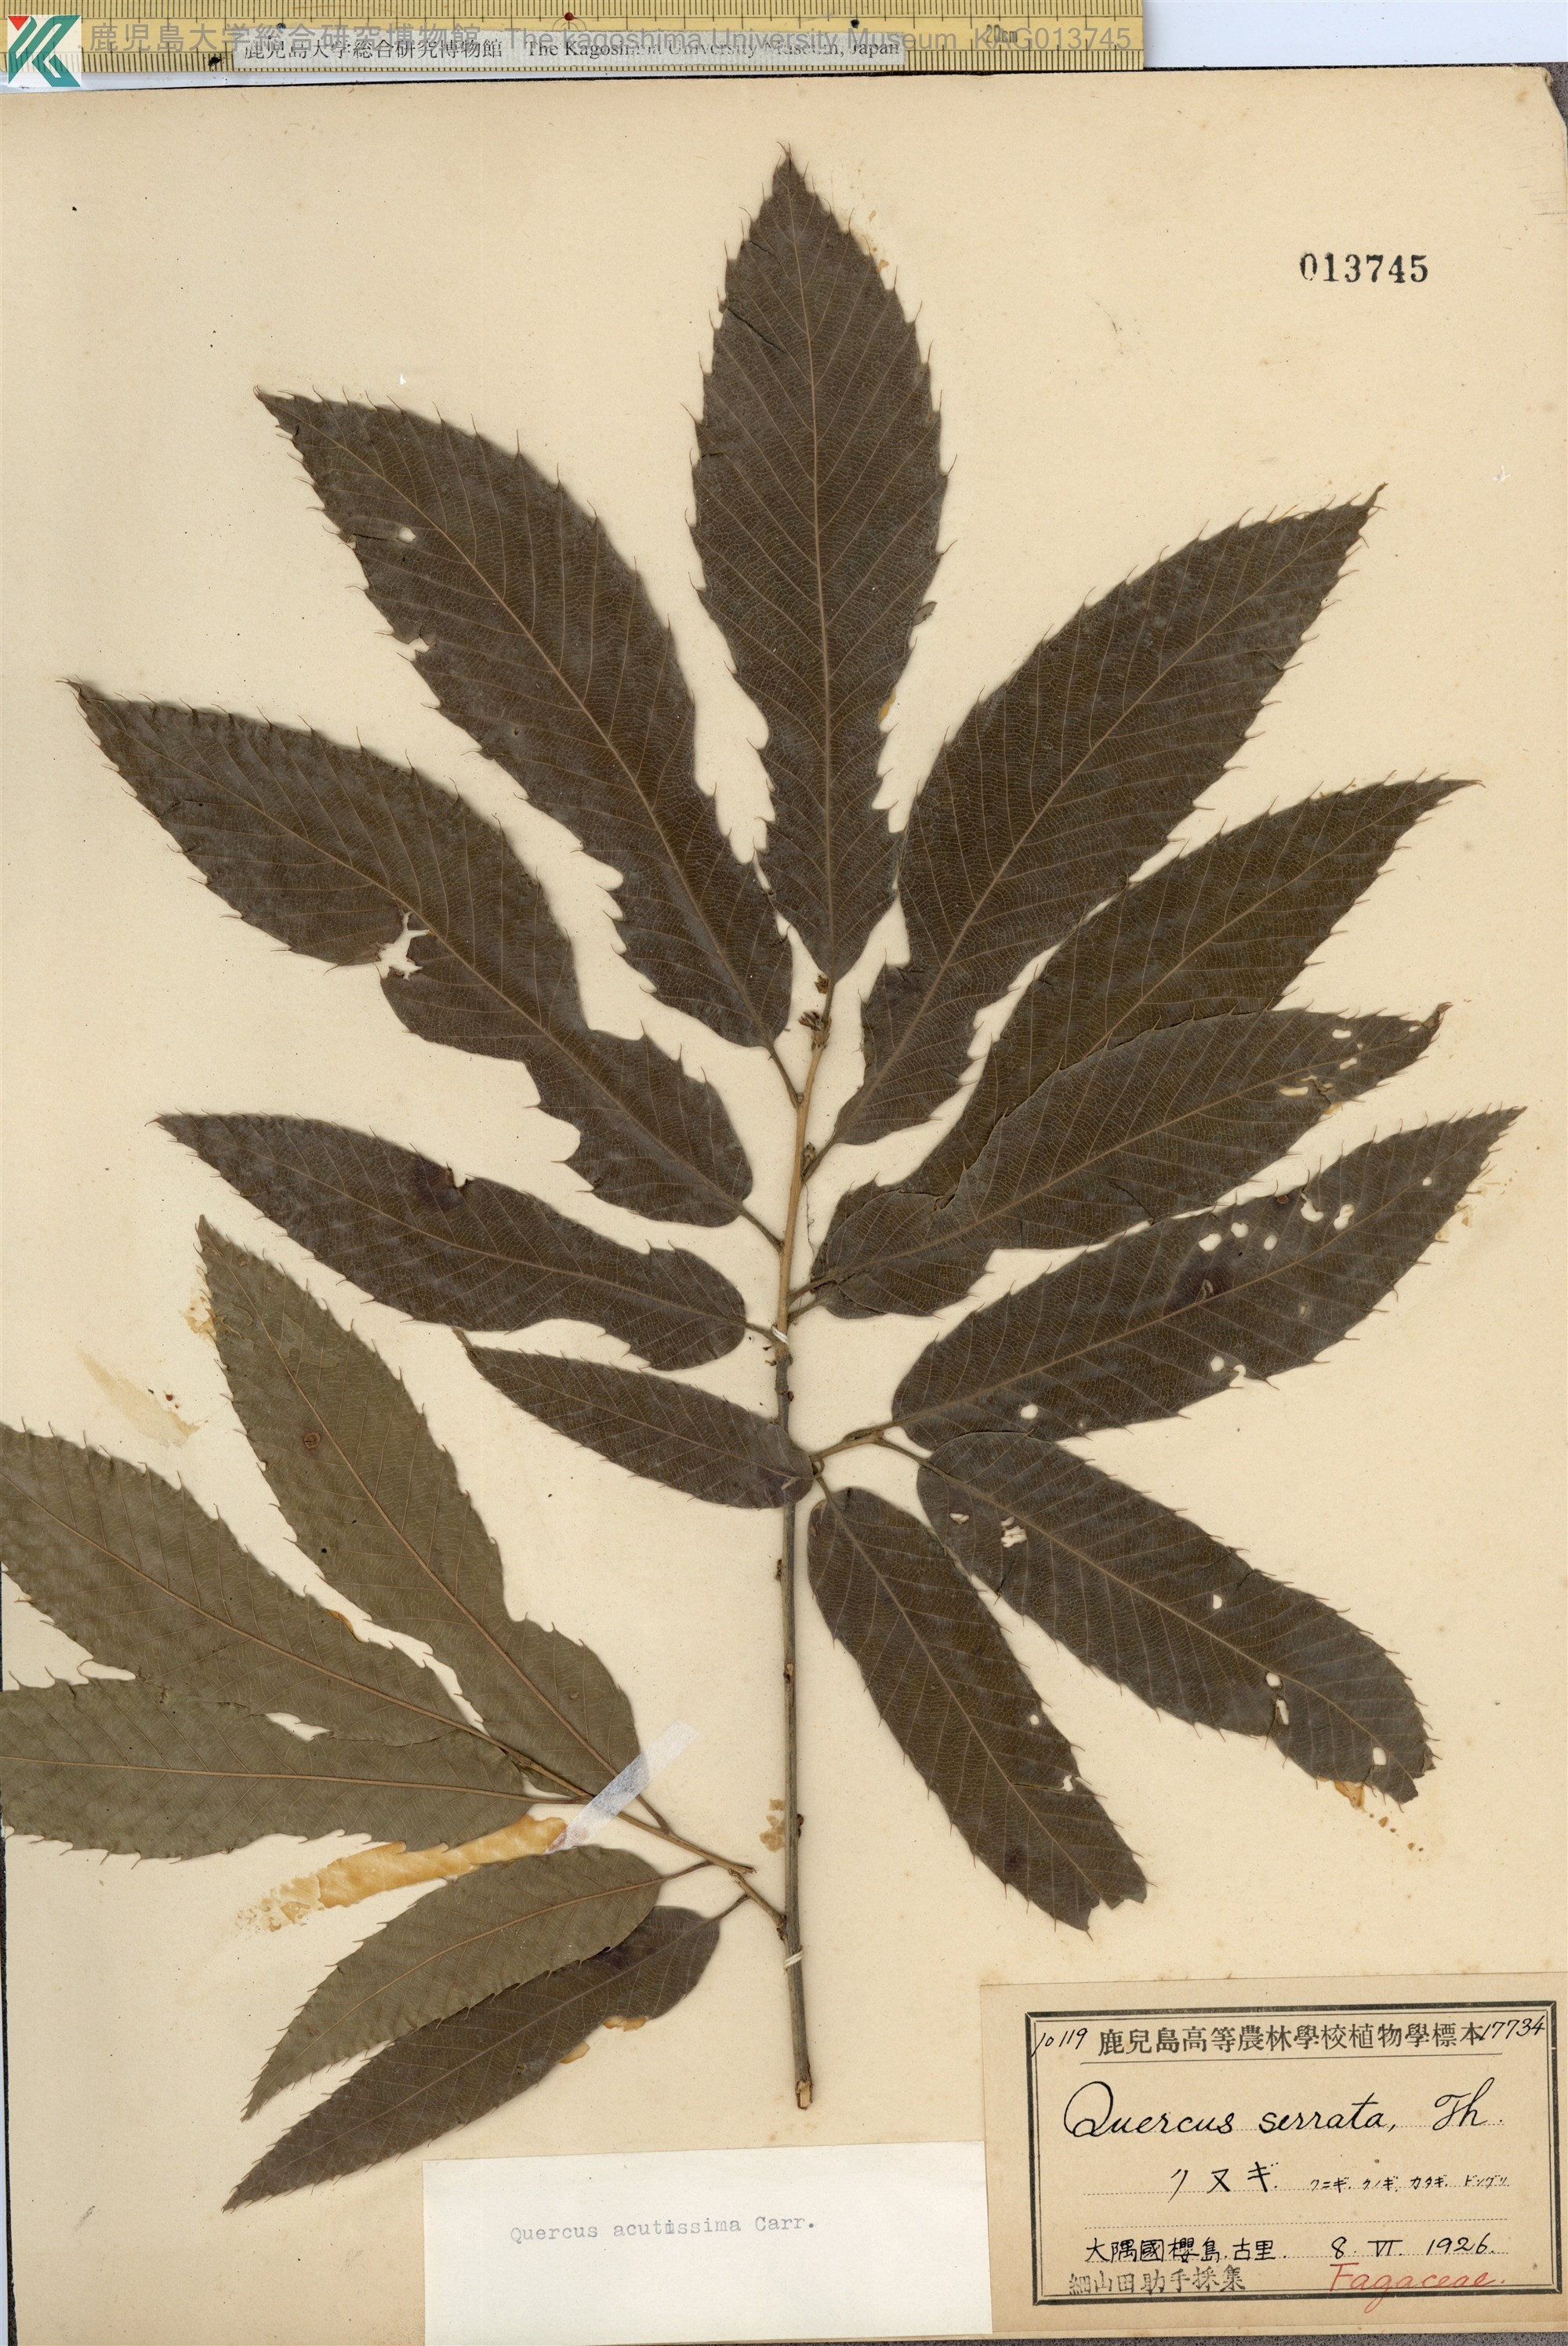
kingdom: Plantae
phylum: Tracheophyta
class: Magnoliopsida
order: Fagales
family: Fagaceae
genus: Quercus
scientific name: Quercus acutissima
